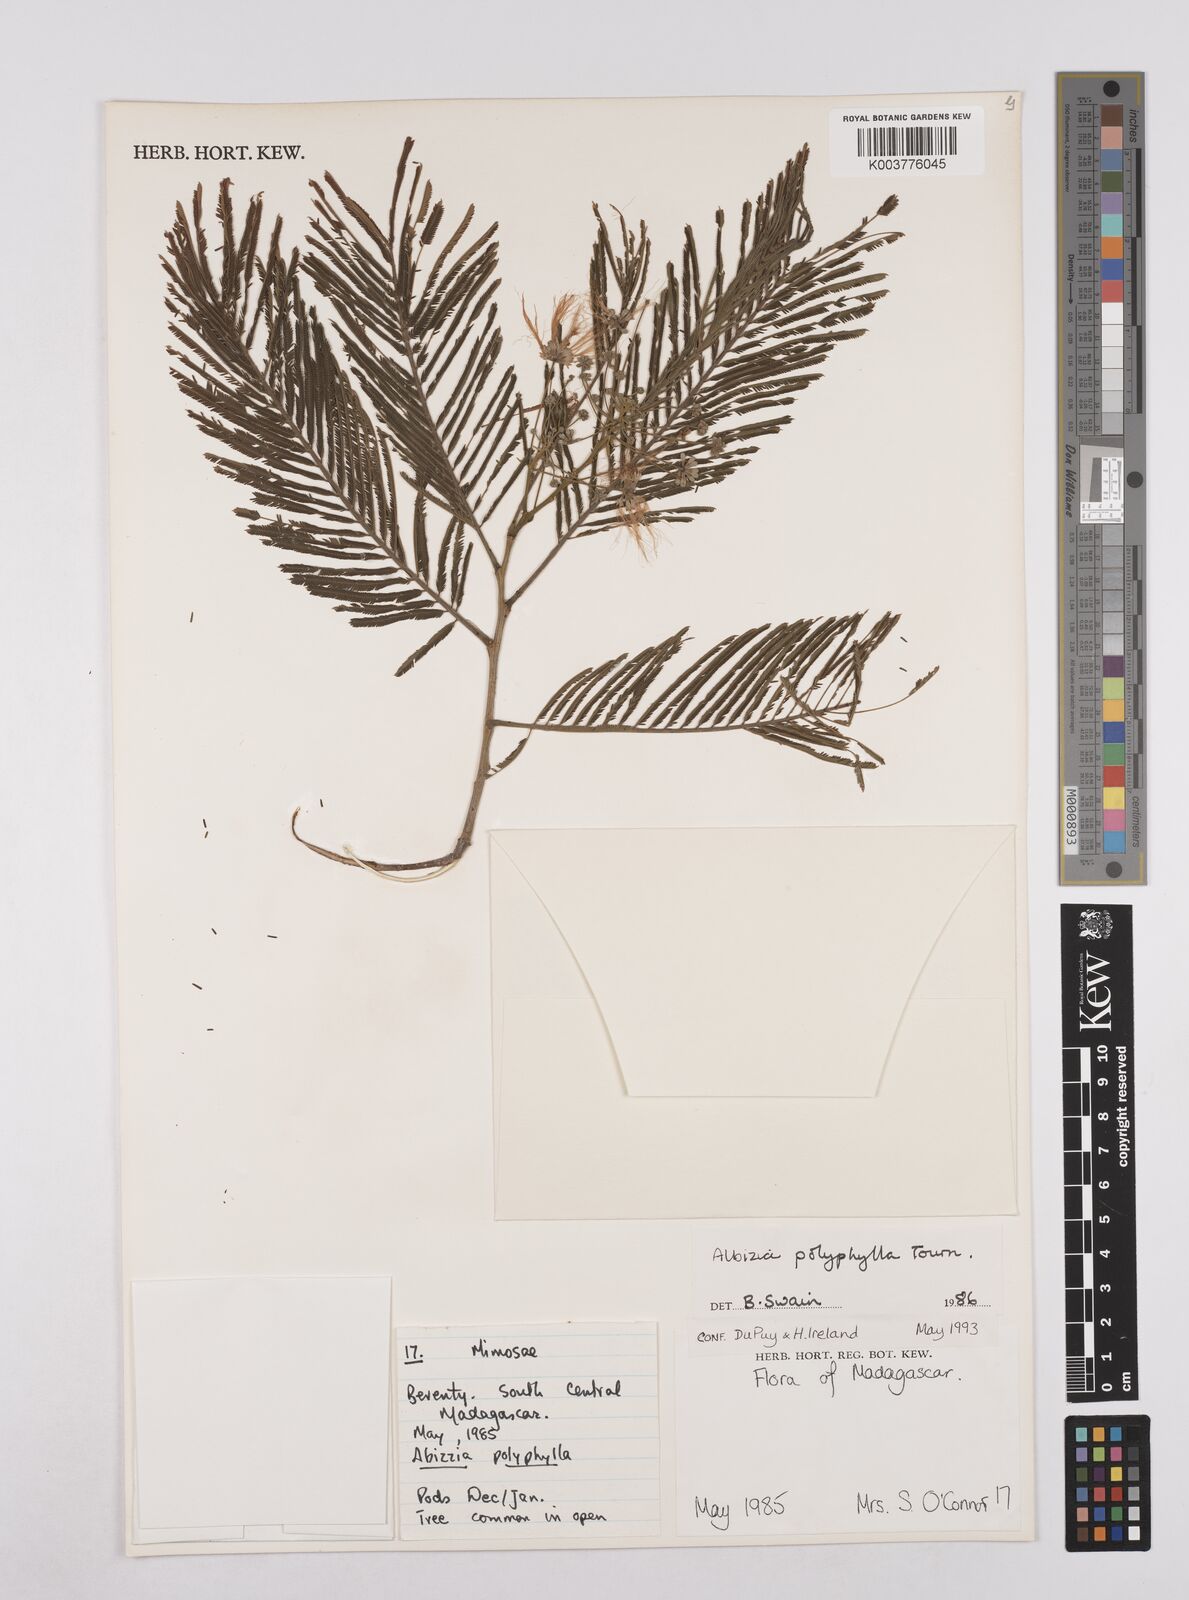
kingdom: Plantae
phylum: Tracheophyta
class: Magnoliopsida
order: Fabales
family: Fabaceae
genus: Albizia
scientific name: Albizia polyphylla
